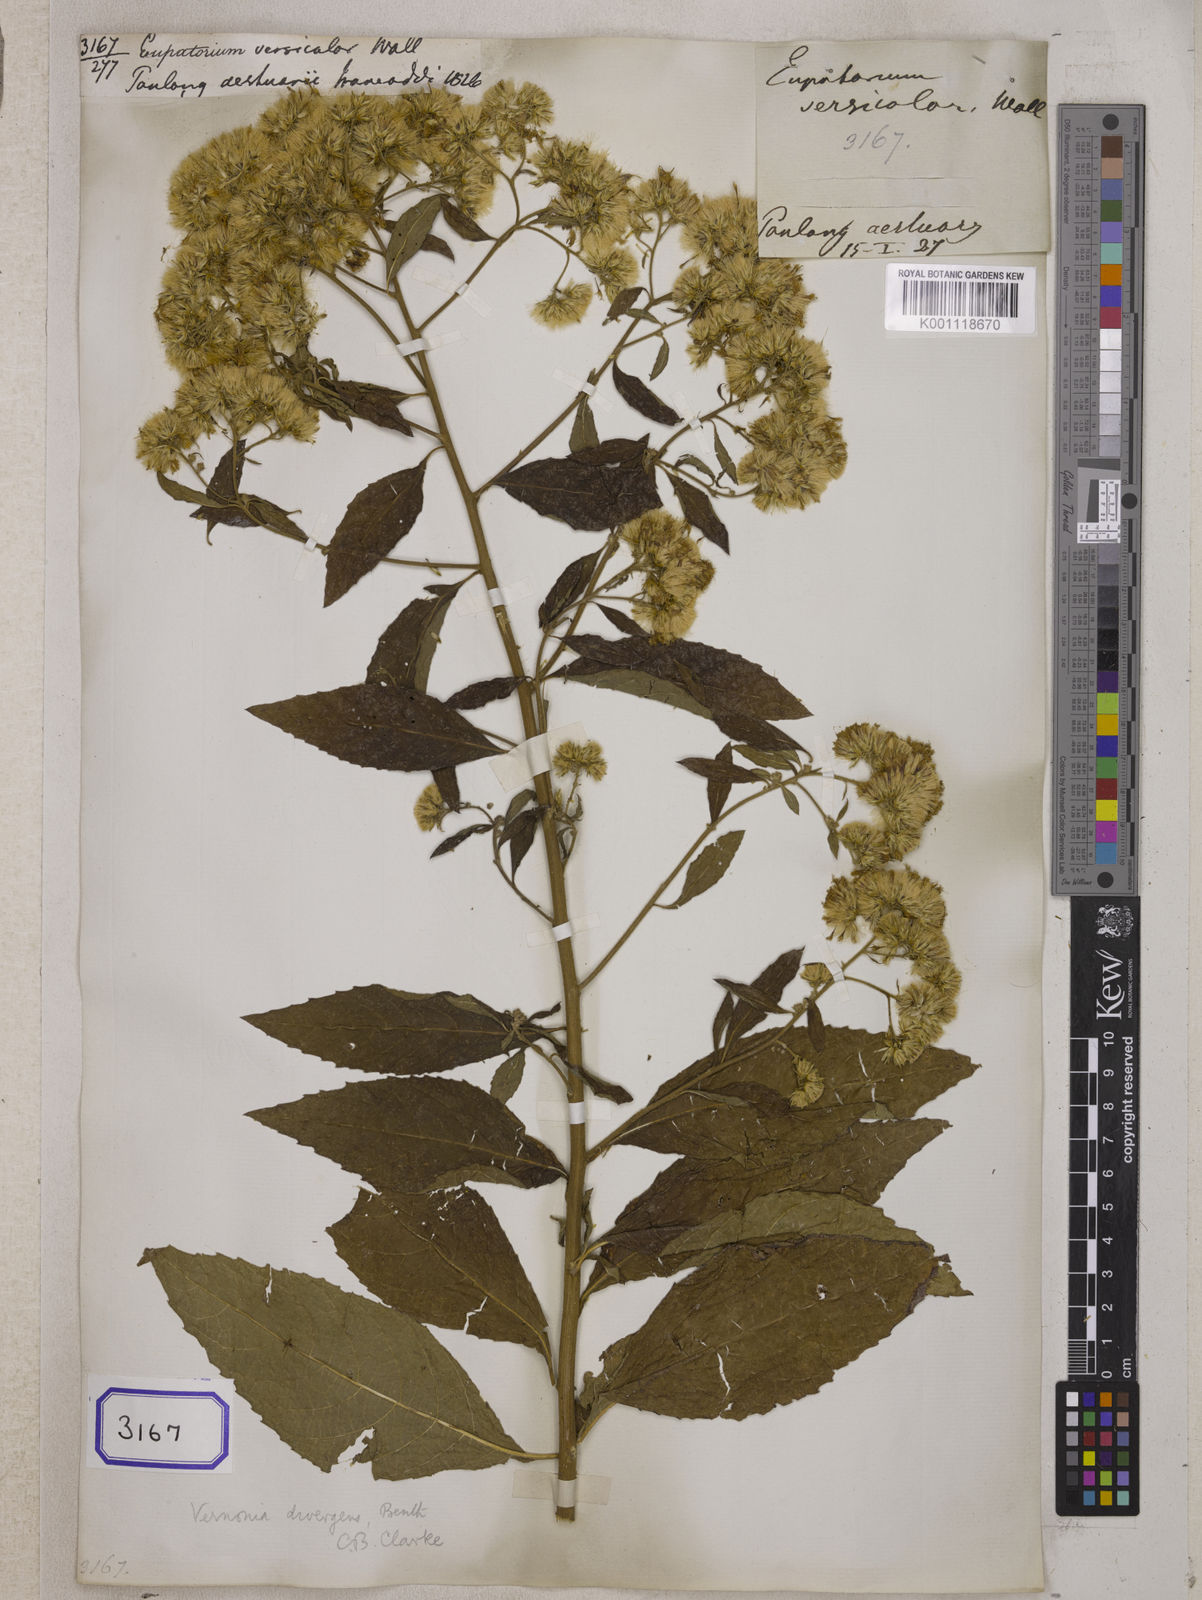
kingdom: Plantae
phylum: Tracheophyta
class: Magnoliopsida
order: Asterales
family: Asteraceae
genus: Acilepis
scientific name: Acilepis divergens
